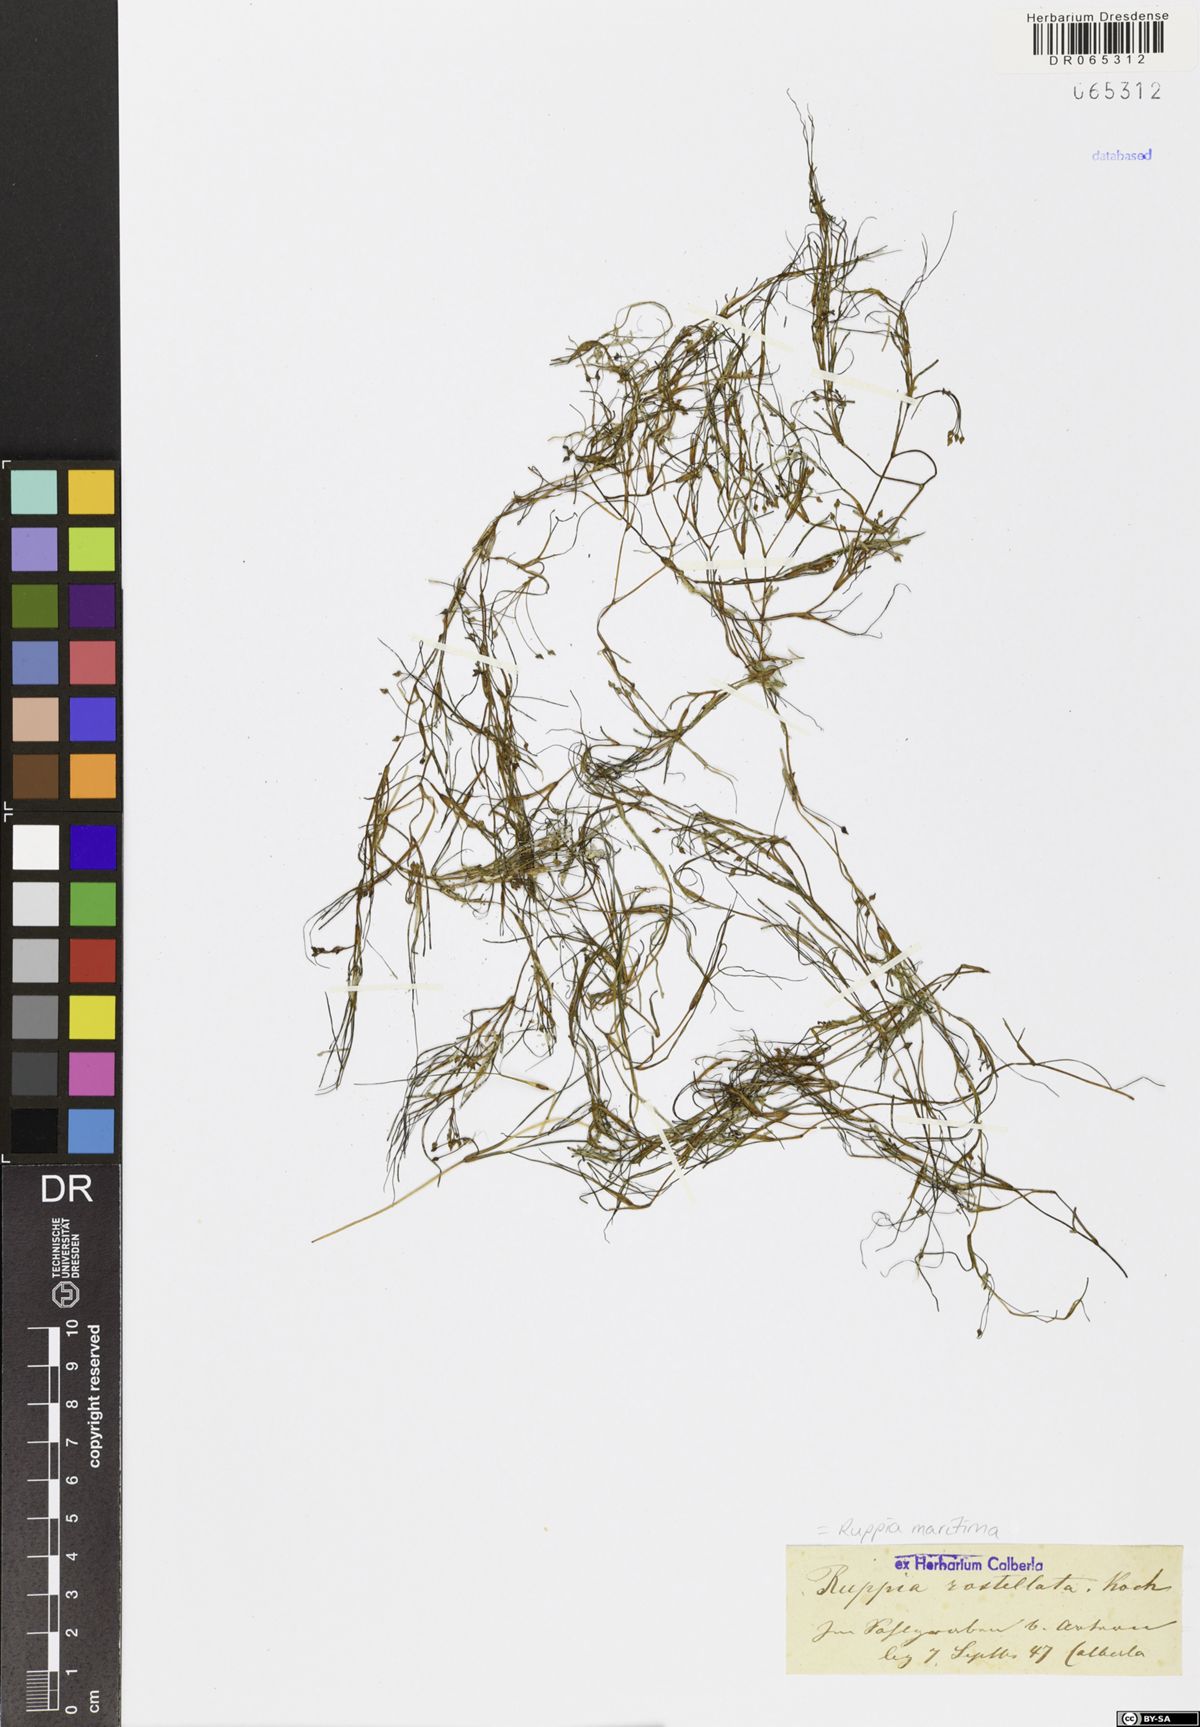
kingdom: Plantae
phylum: Tracheophyta
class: Liliopsida
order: Alismatales
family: Ruppiaceae
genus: Ruppia
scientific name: Ruppia maritima
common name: Beaked tasselweed
